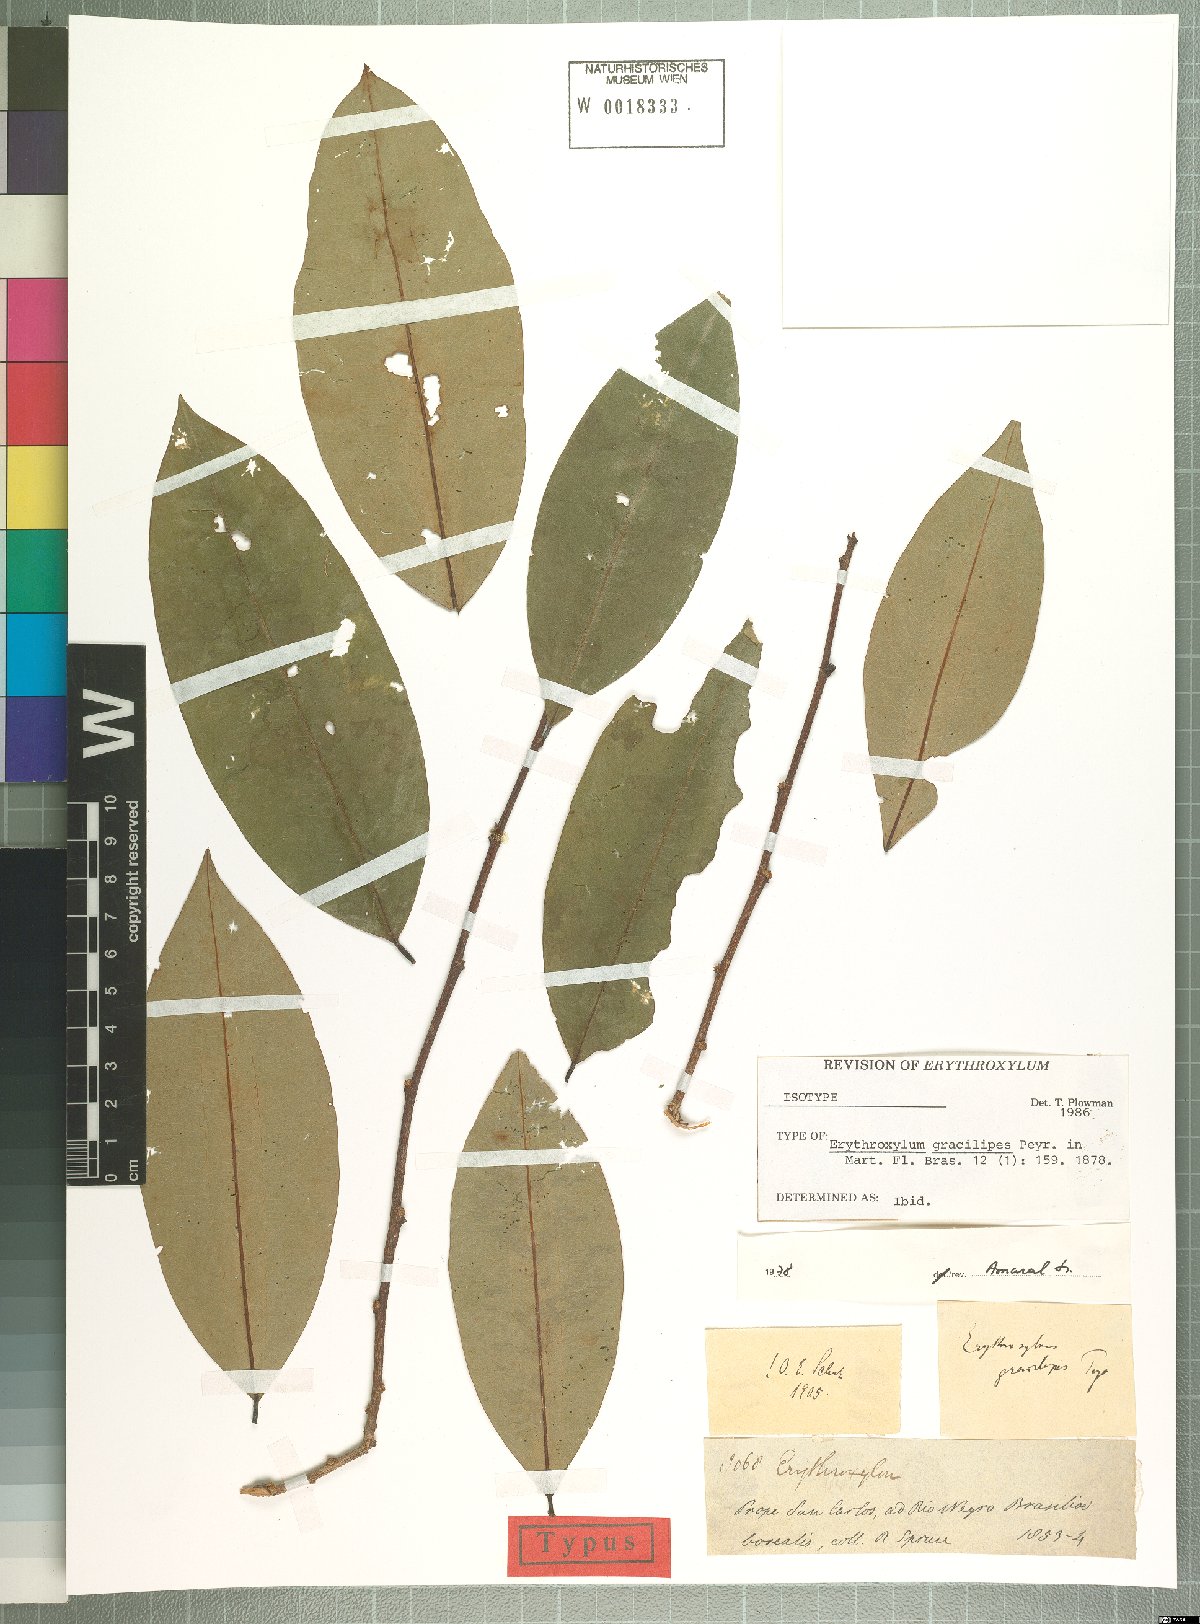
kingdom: Plantae
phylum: Tracheophyta
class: Magnoliopsida
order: Malpighiales
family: Erythroxylaceae
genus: Erythroxylum
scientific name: Erythroxylum gracilipes
